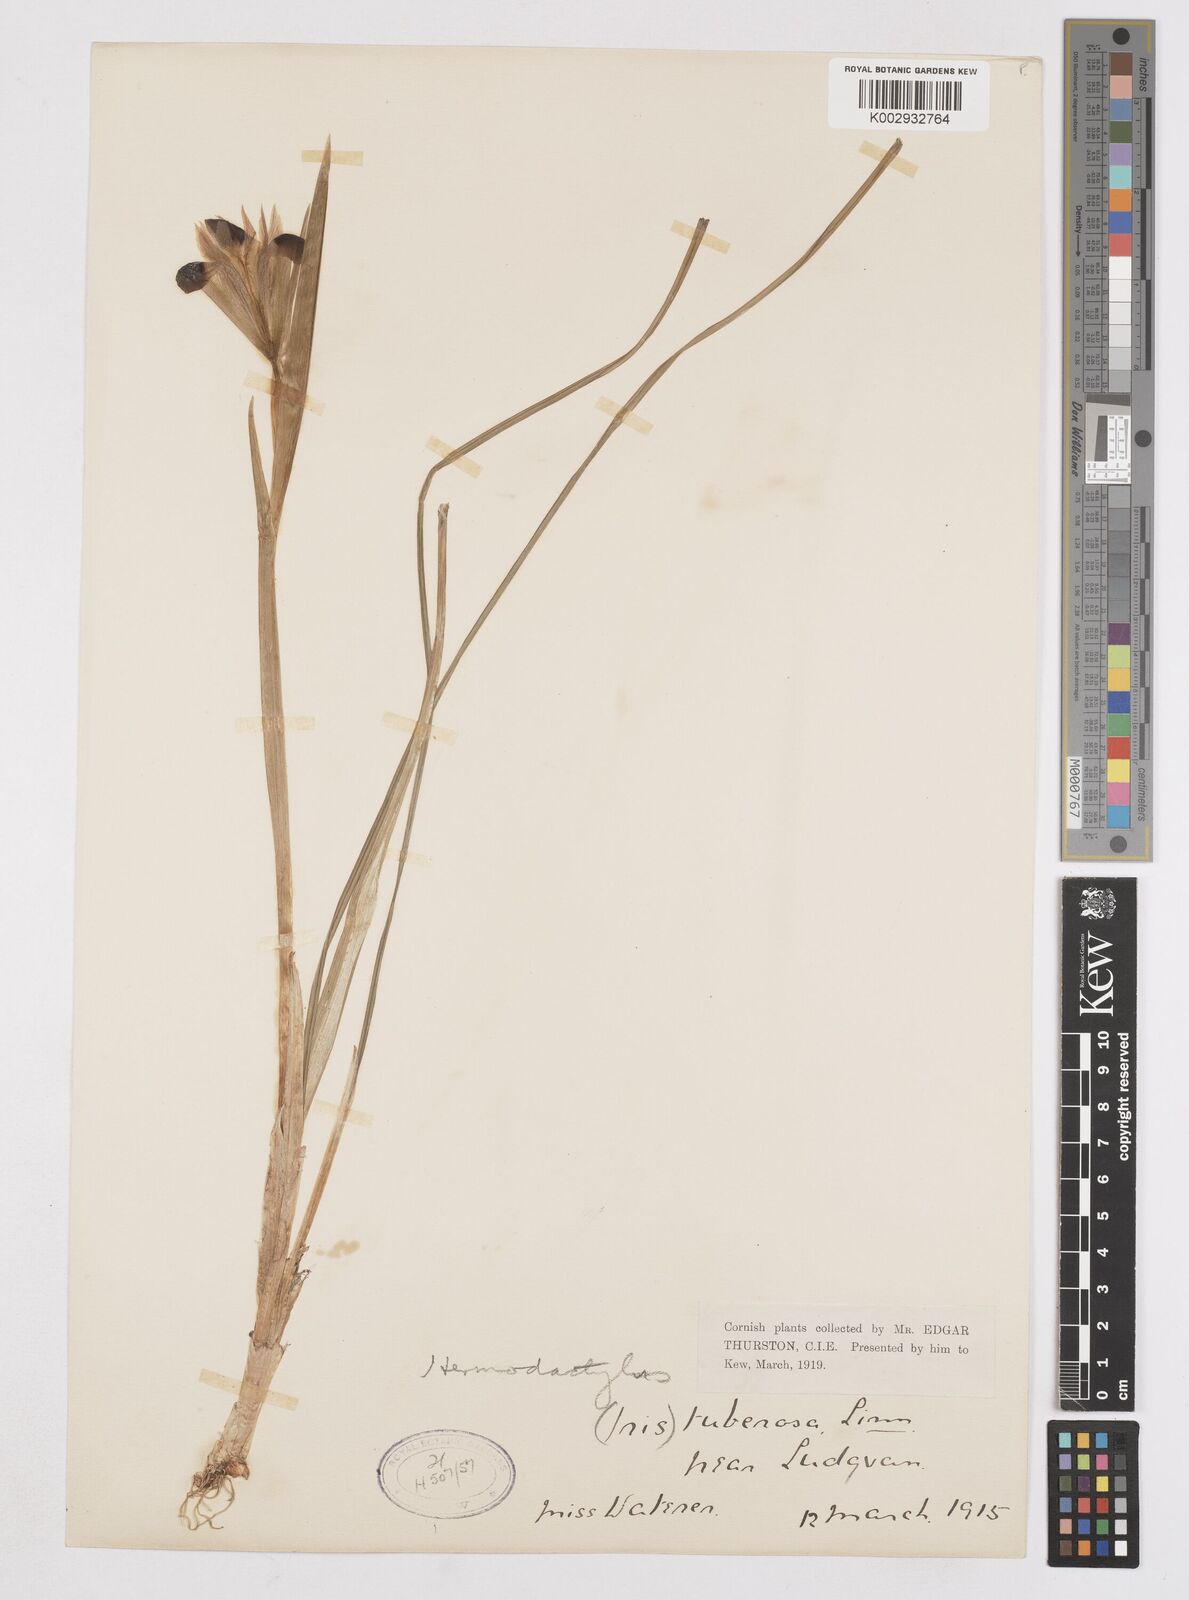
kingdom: Plantae
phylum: Tracheophyta
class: Liliopsida
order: Asparagales
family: Iridaceae
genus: Iris
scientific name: Iris tuberosa
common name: Snake's-head iris
